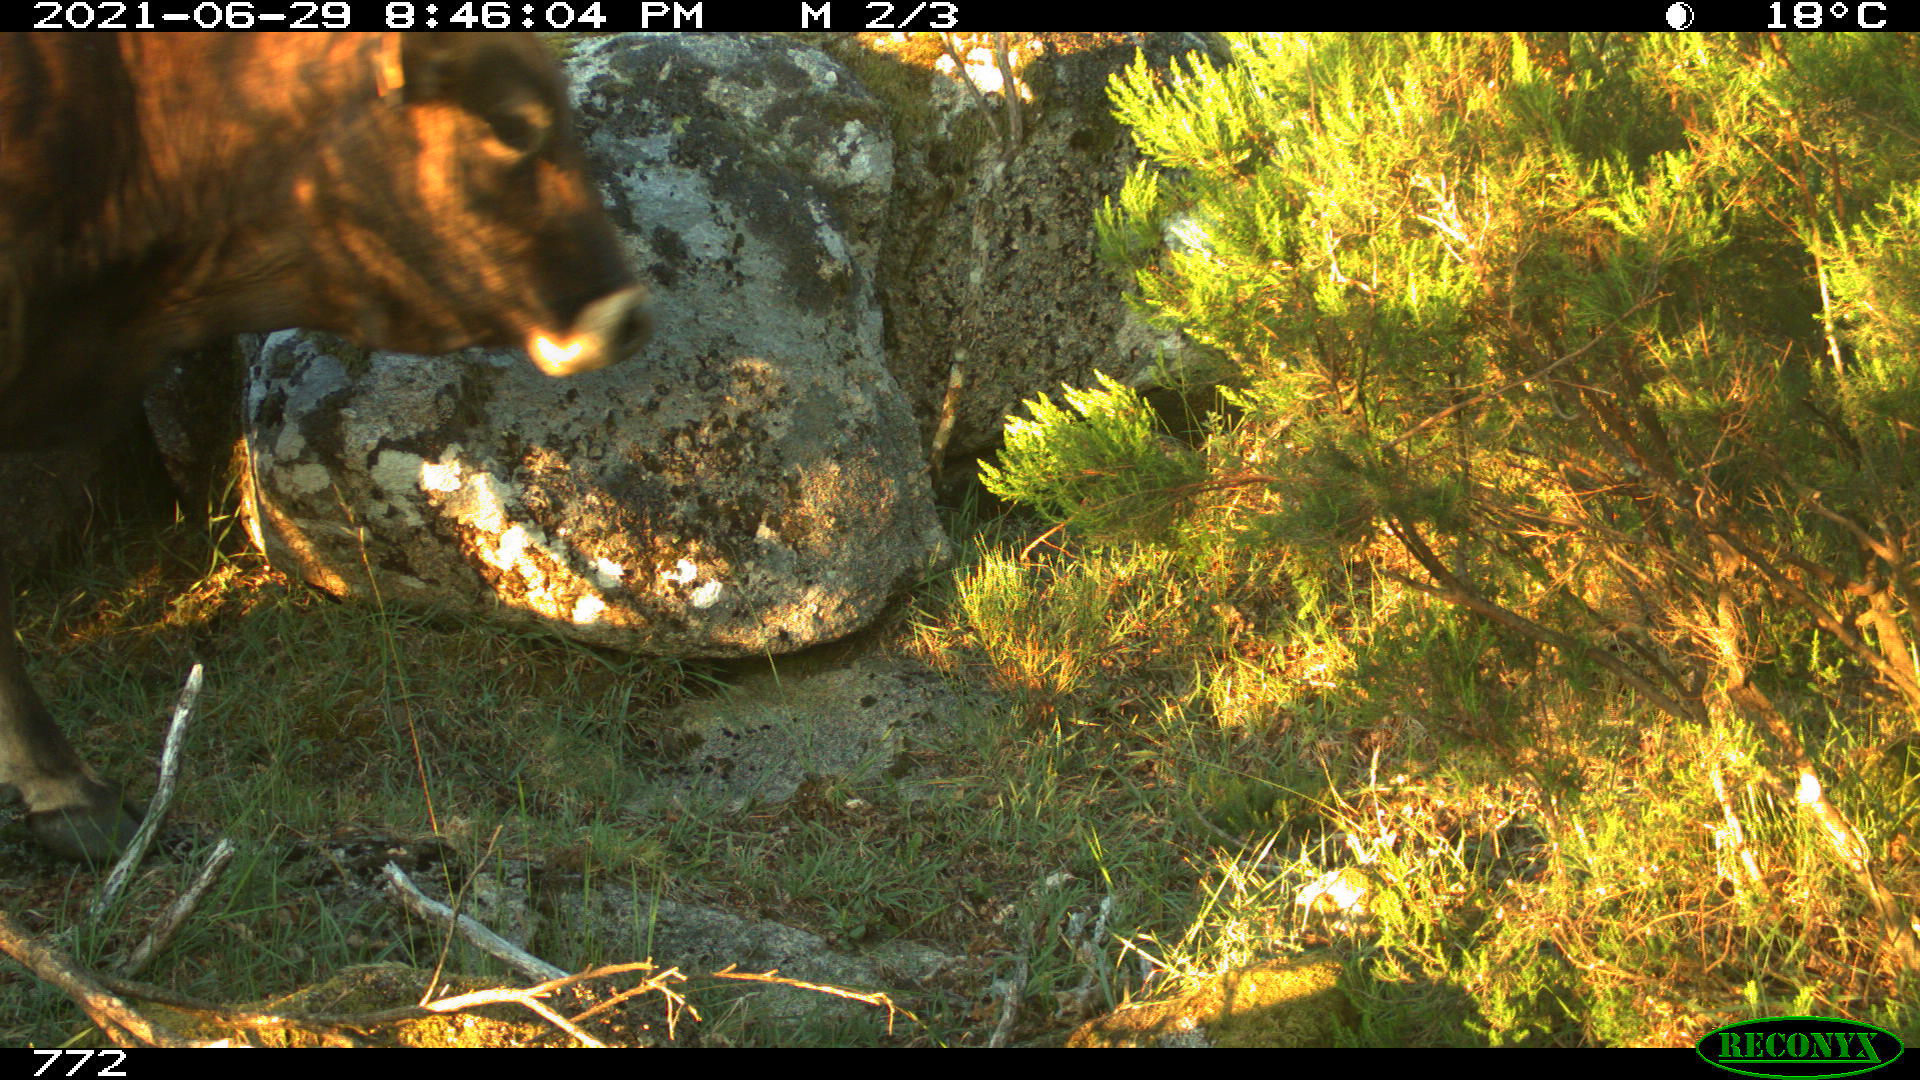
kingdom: Animalia
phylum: Chordata
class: Mammalia
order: Artiodactyla
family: Bovidae
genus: Bos
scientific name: Bos taurus
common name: Domesticated cattle
